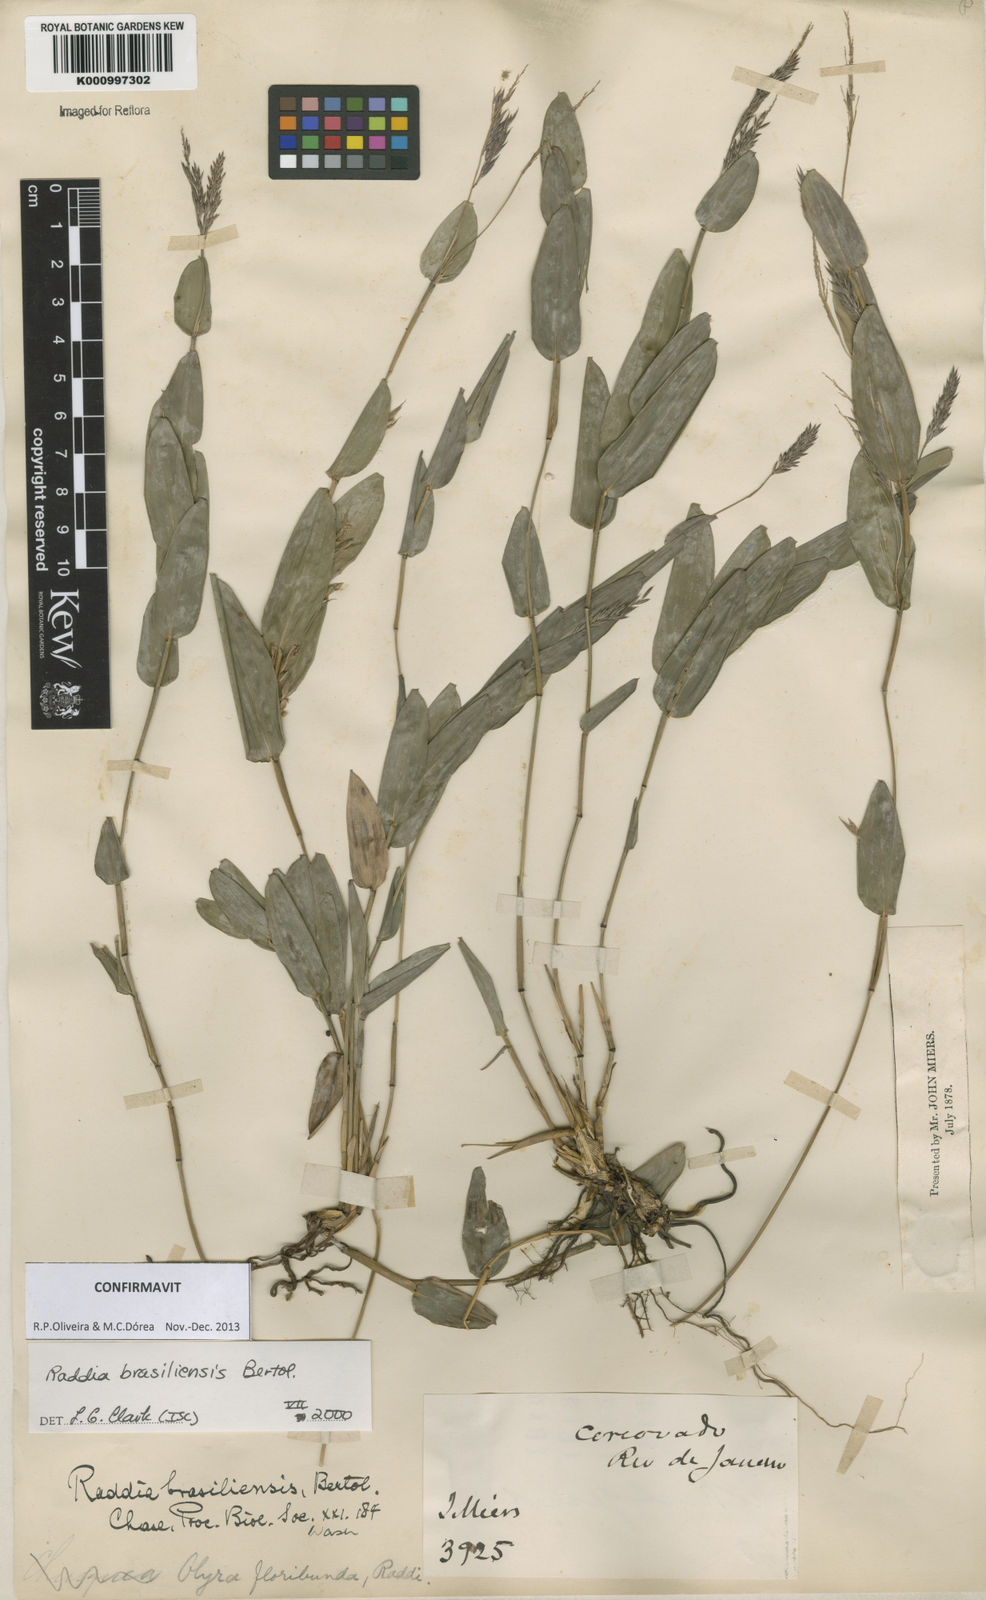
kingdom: Plantae
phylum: Tracheophyta
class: Liliopsida
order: Poales
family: Poaceae
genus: Raddia
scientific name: Raddia brasiliensis
